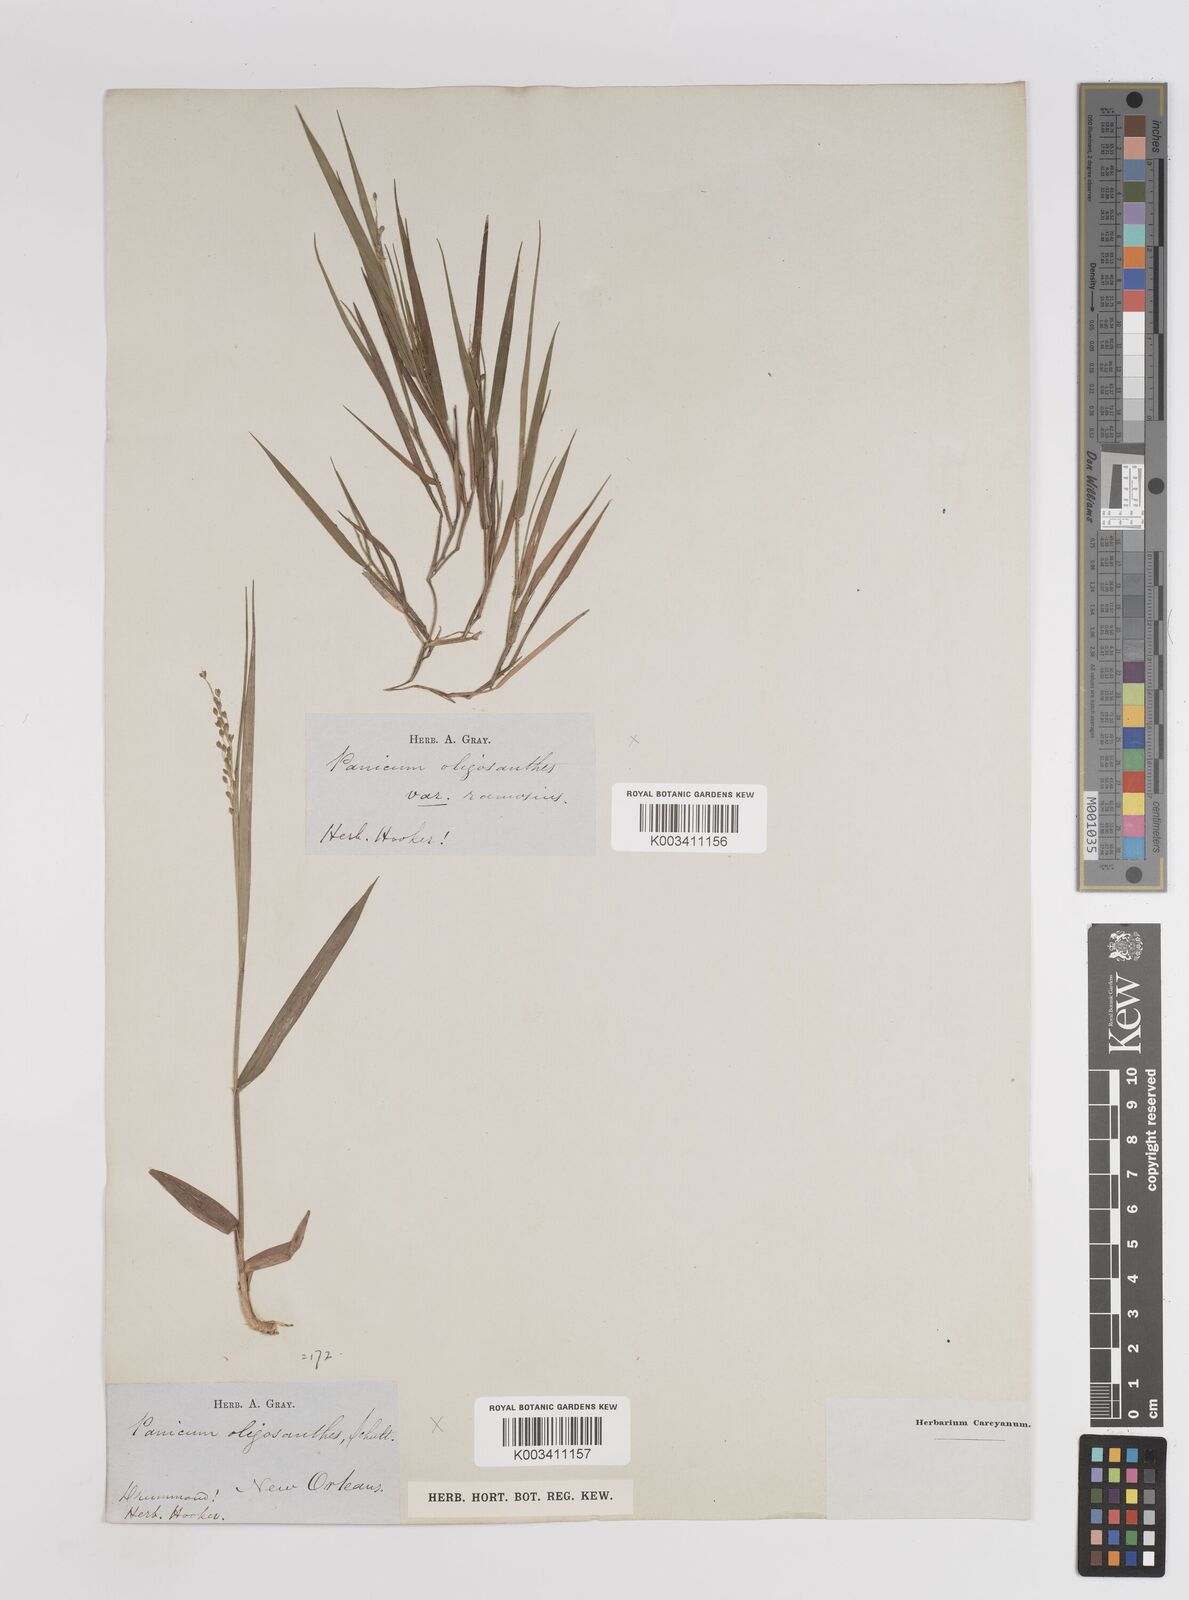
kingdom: Plantae
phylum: Tracheophyta
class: Liliopsida
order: Poales
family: Poaceae
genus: Dichanthelium
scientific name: Dichanthelium oligosanthes
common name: Few-anther obscuregrass
